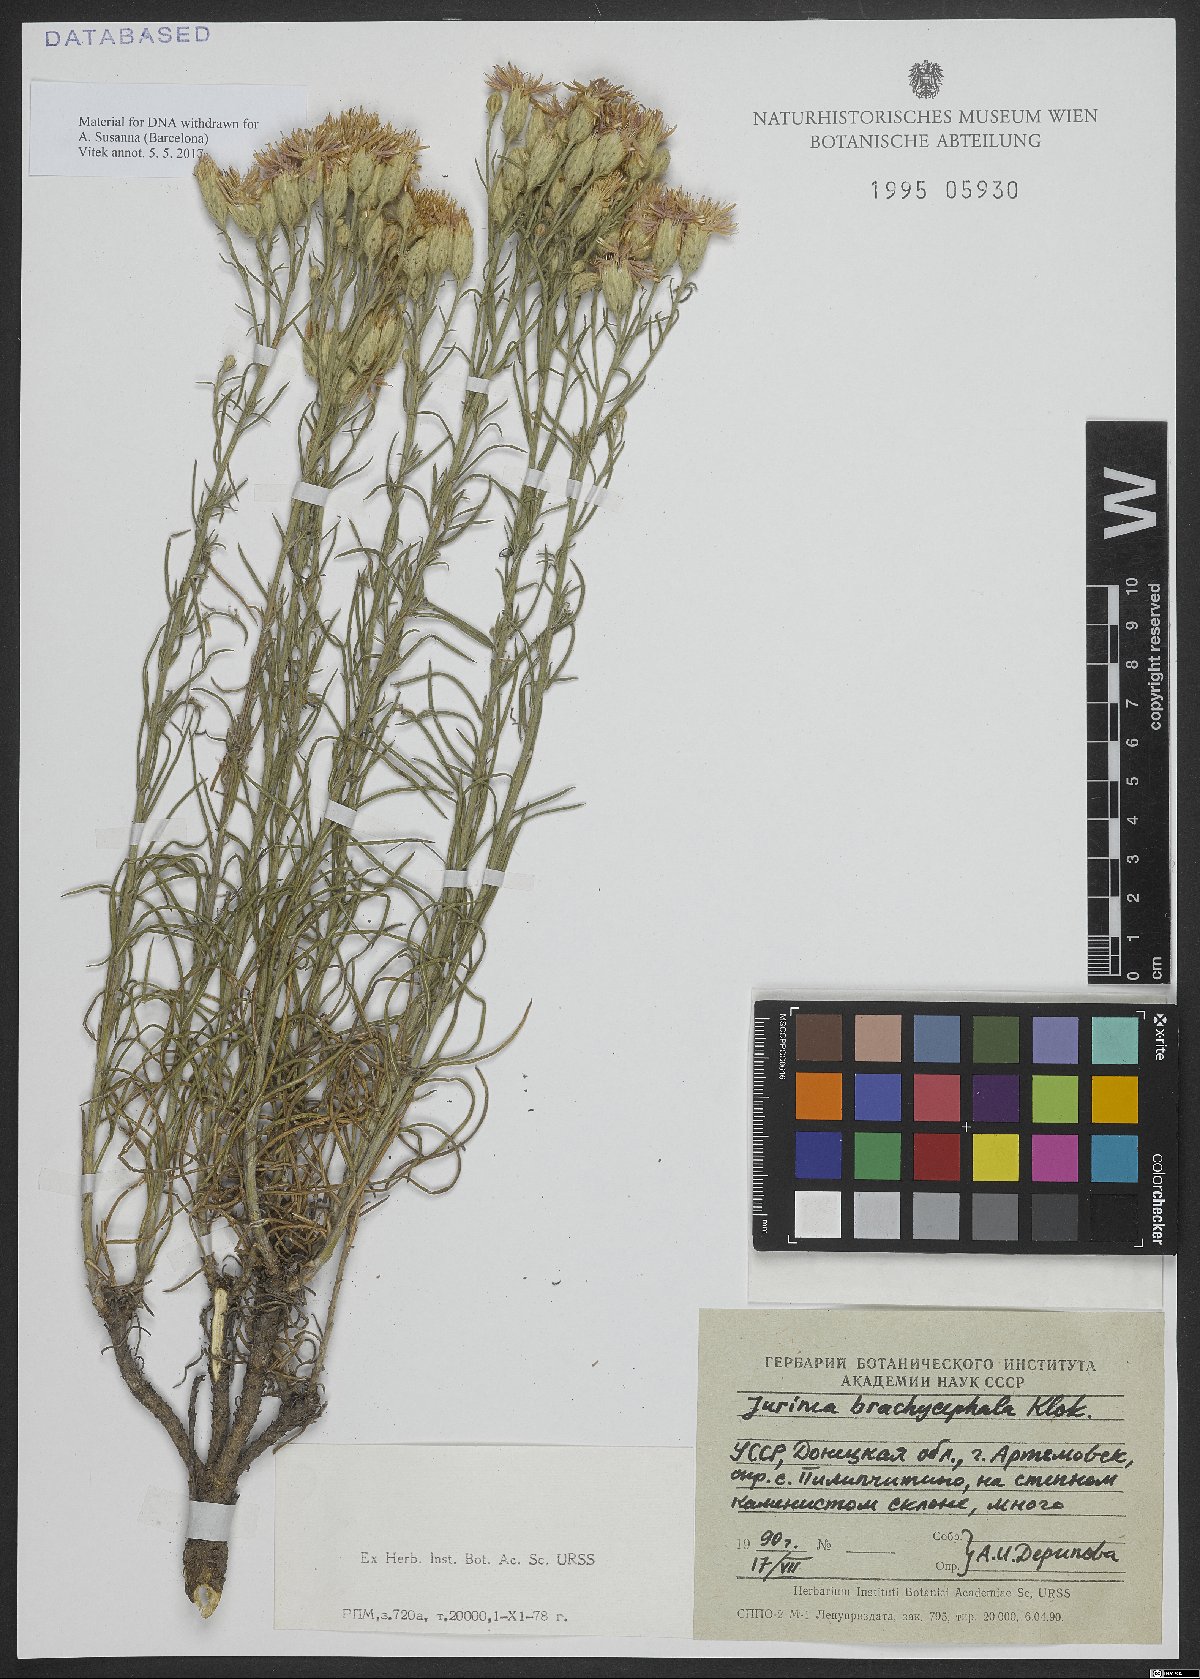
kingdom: Plantae
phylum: Tracheophyta
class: Magnoliopsida
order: Asterales
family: Asteraceae
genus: Jurinea
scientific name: Jurinea stoechadifolia
